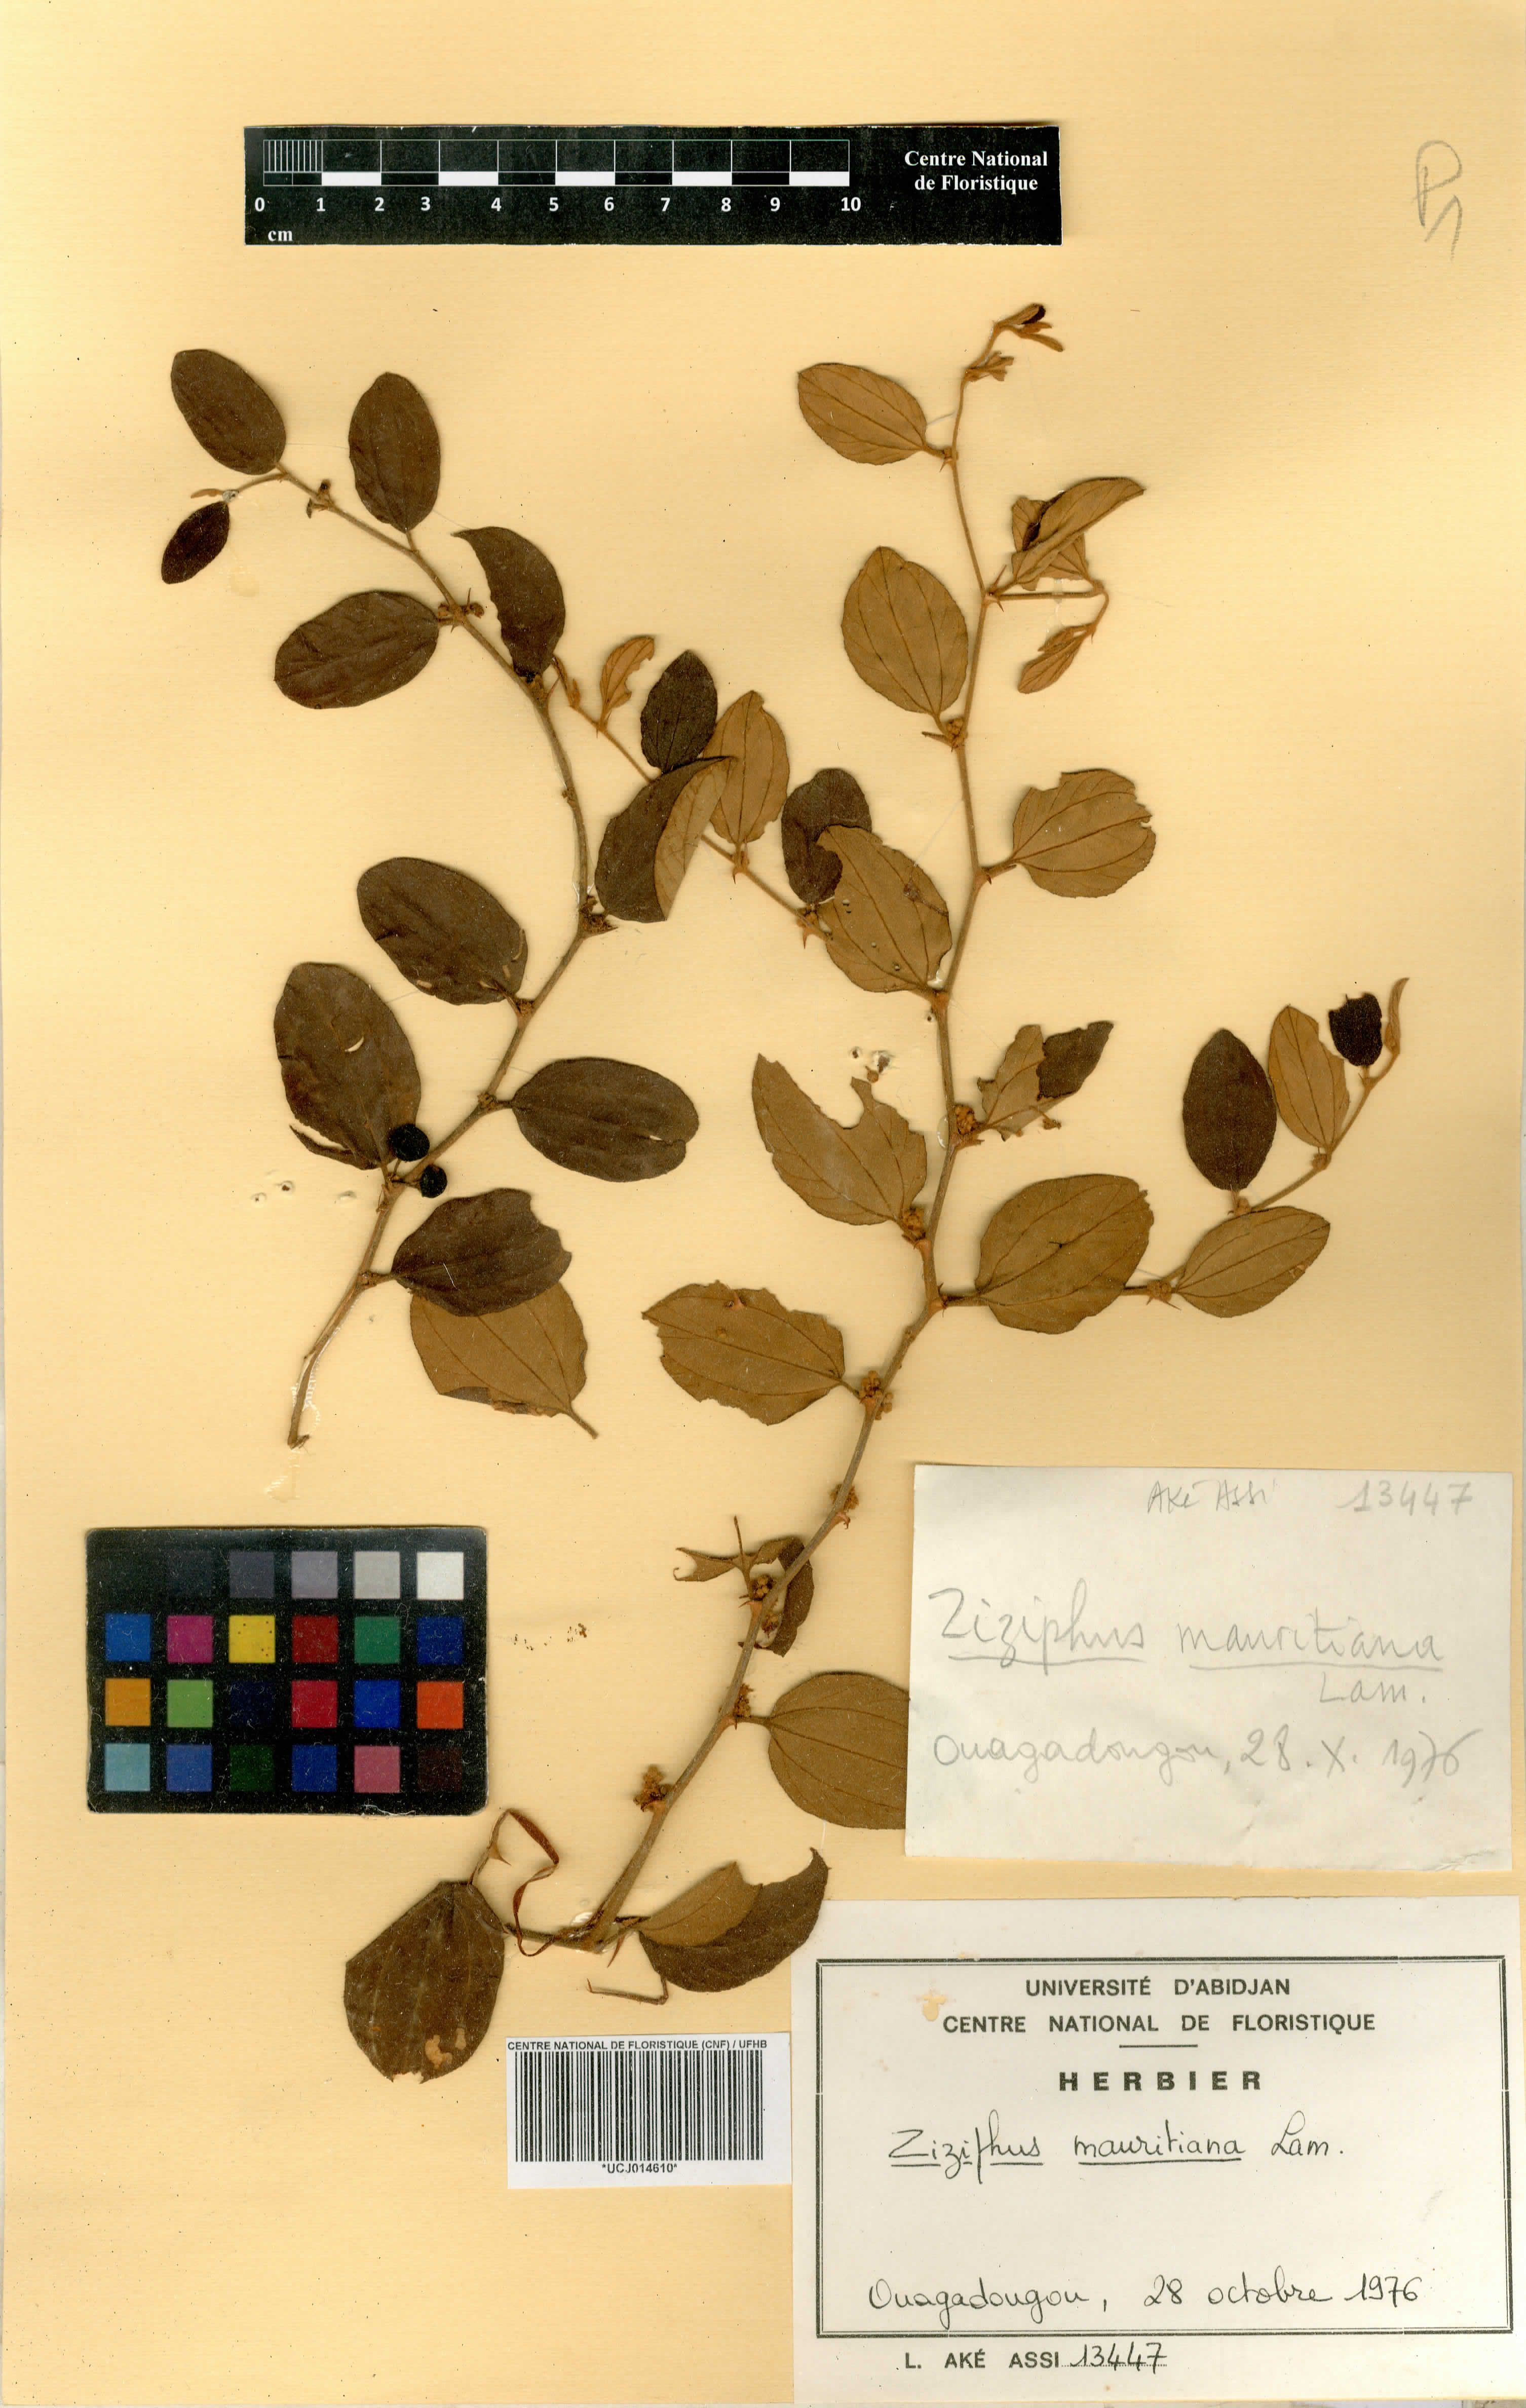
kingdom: Plantae
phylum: Tracheophyta
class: Magnoliopsida
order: Rosales
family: Rhamnaceae
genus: Ziziphus
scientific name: Ziziphus mauritiana
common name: Indian jujube
